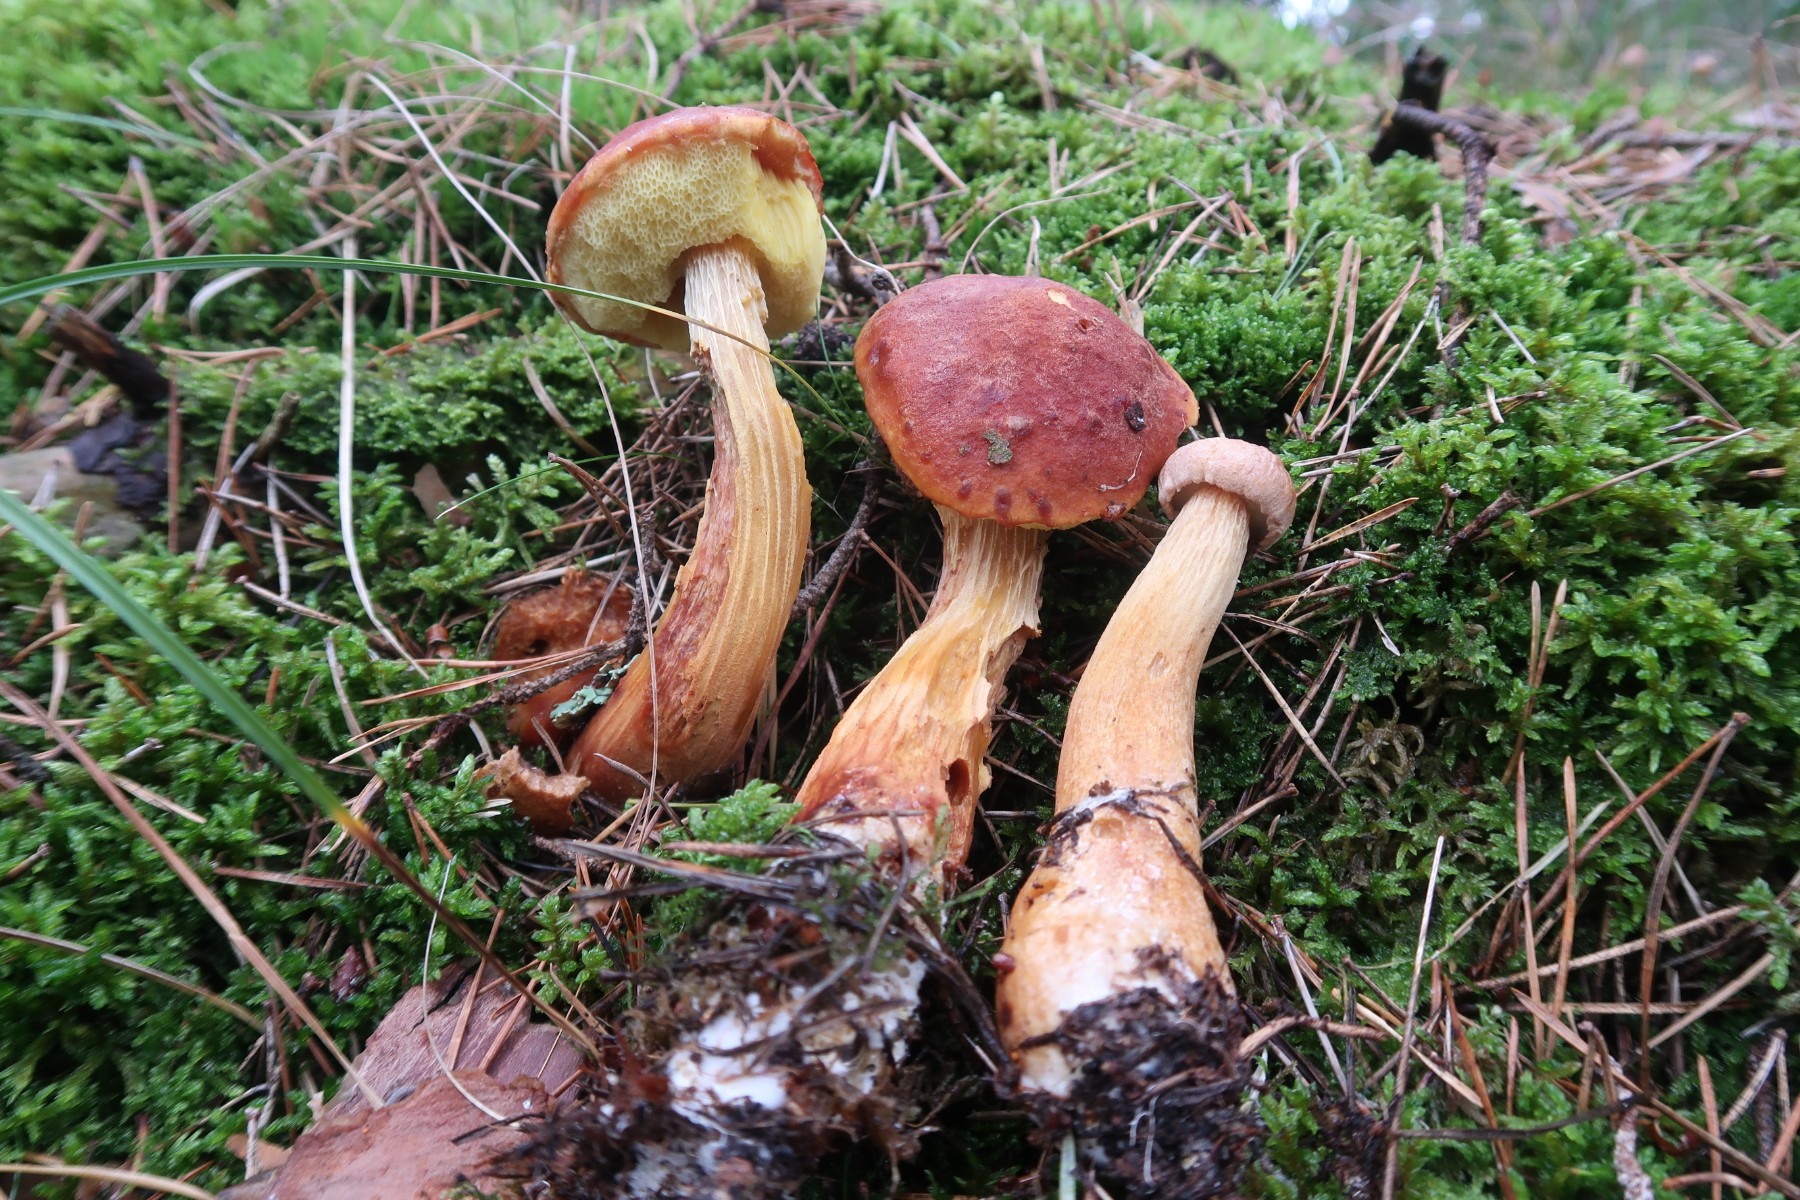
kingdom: Fungi
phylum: Basidiomycota
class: Agaricomycetes
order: Boletales
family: Boletaceae
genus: Aureoboletus
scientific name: Aureoboletus projectellus
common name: ribbestokket rørhat
